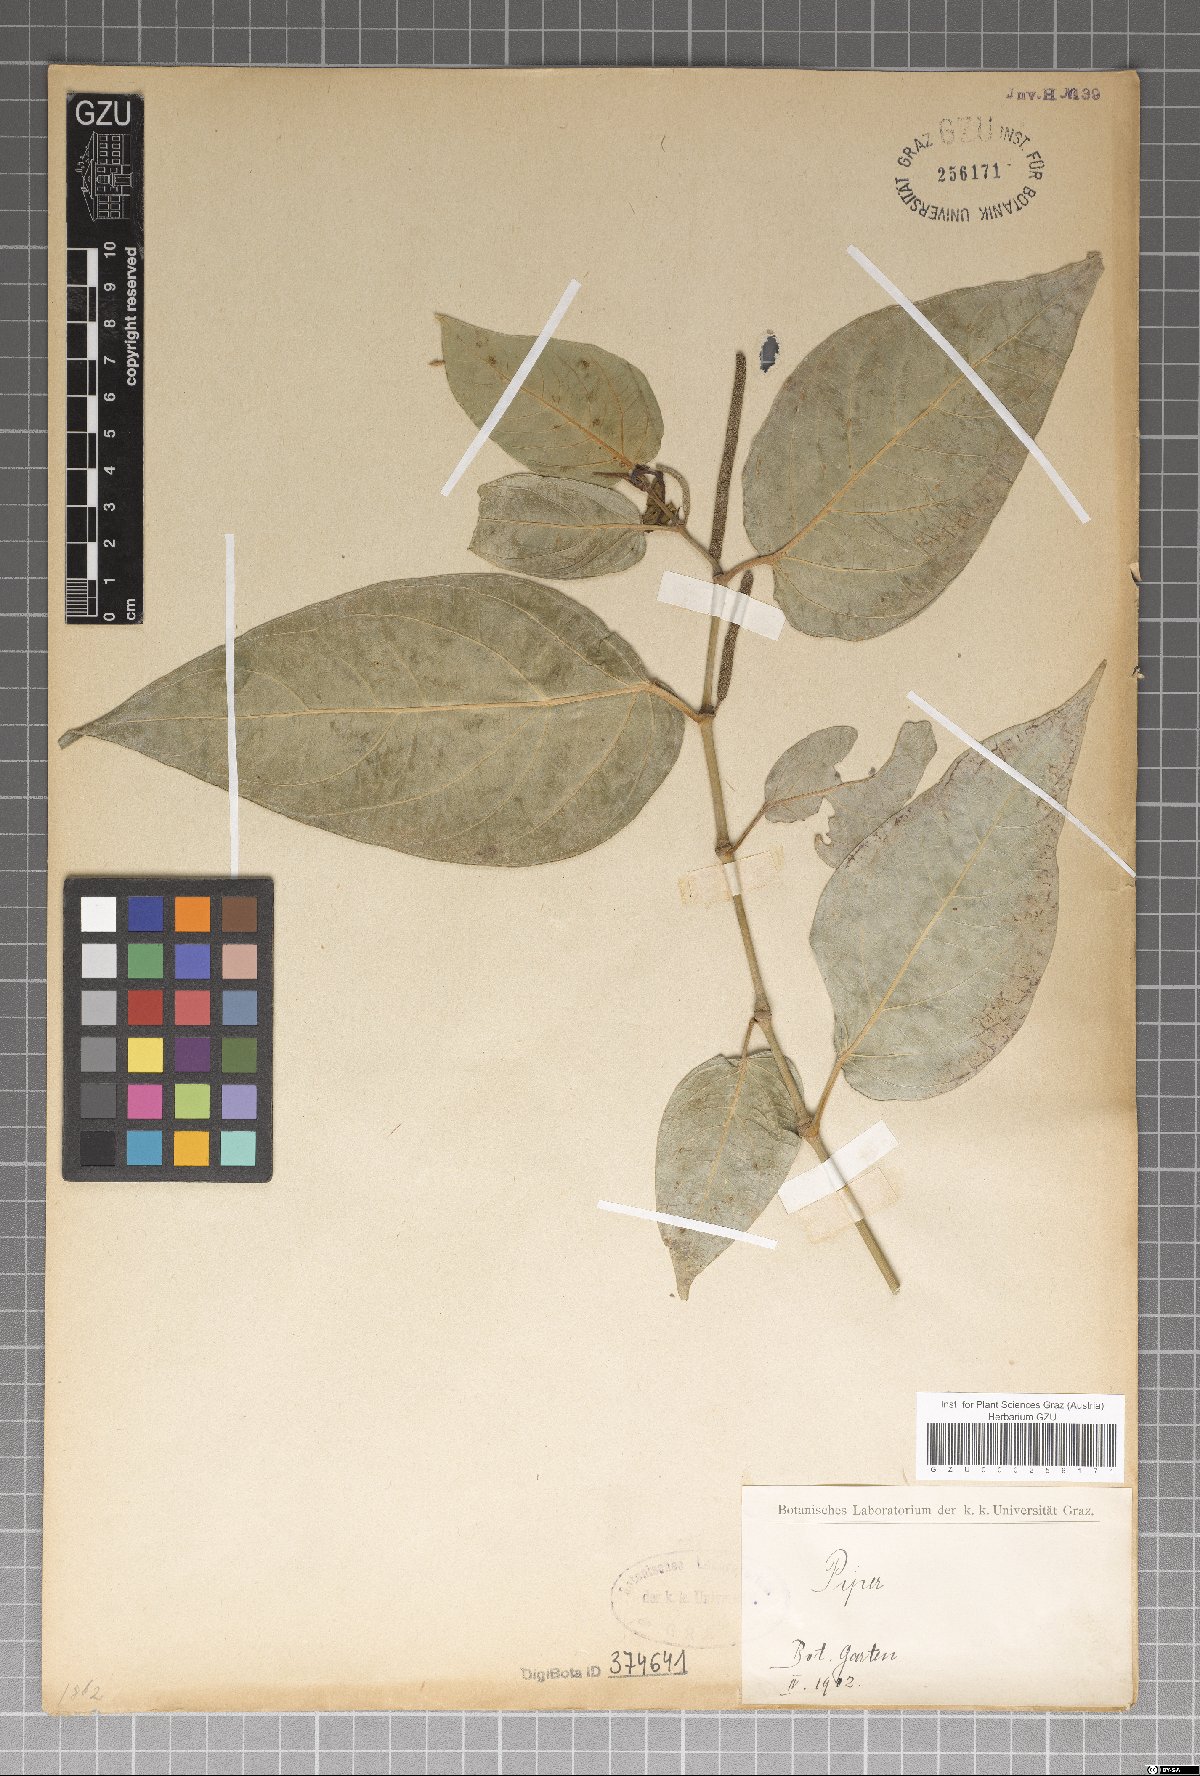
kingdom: Plantae
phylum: Tracheophyta
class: Magnoliopsida
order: Piperales
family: Piperaceae
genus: Piper
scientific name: Piper
